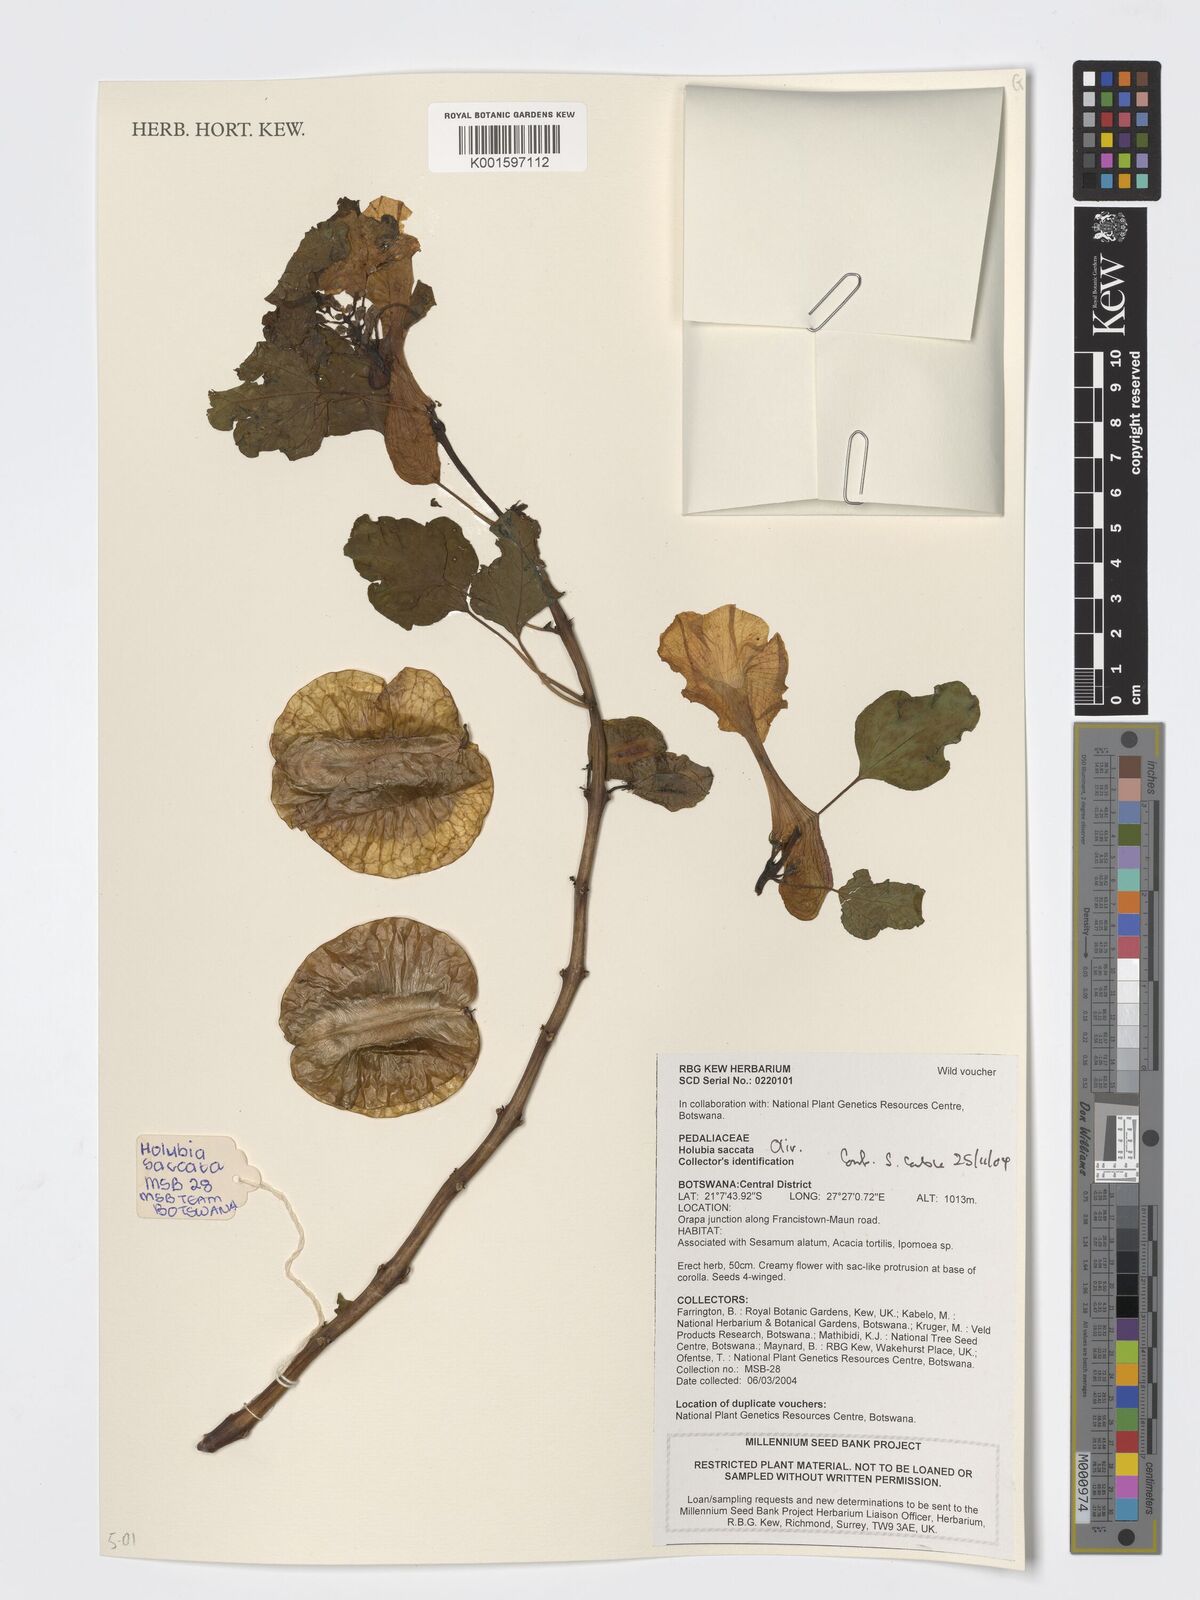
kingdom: Plantae
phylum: Tracheophyta
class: Magnoliopsida
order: Lamiales
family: Pedaliaceae
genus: Holubia
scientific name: Holubia saccata
